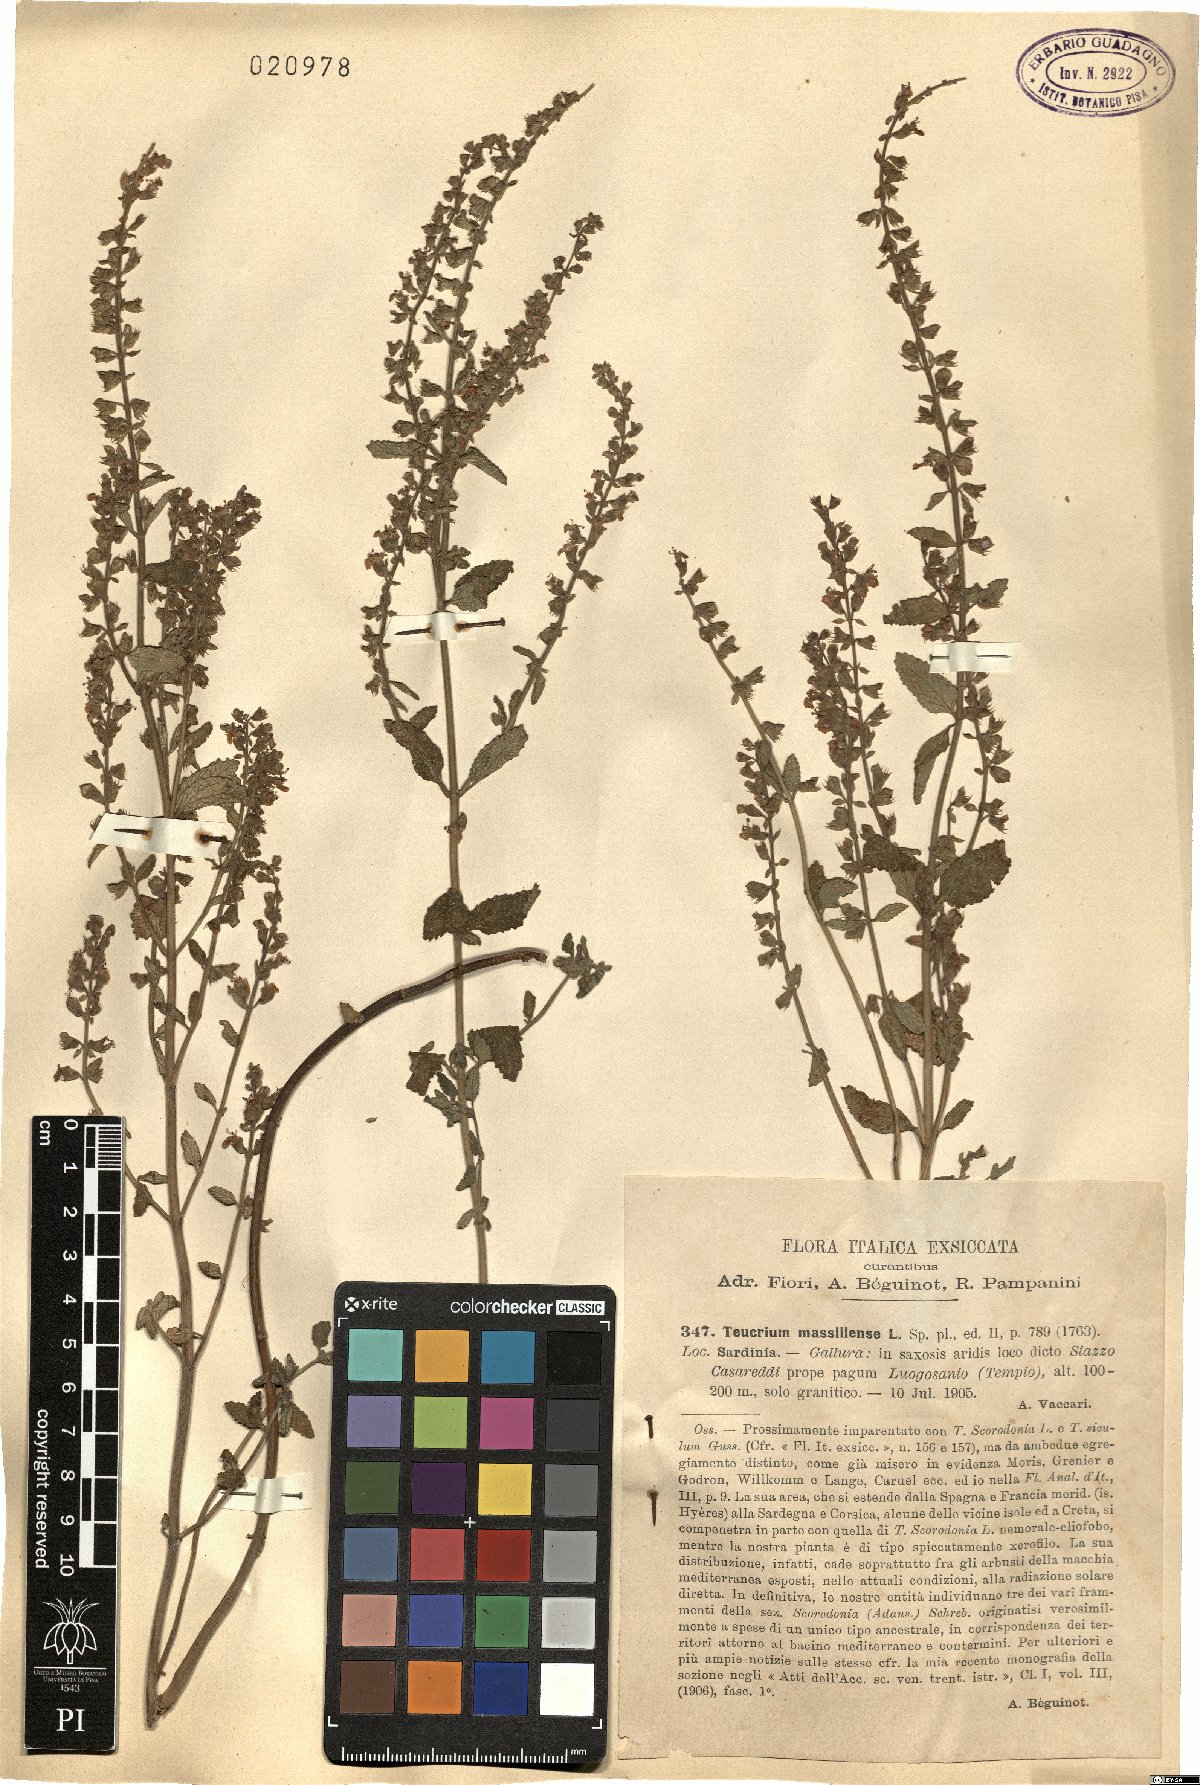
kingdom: Plantae
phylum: Tracheophyta
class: Magnoliopsida
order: Lamiales
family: Lamiaceae
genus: Teucrium
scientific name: Teucrium massiliense
